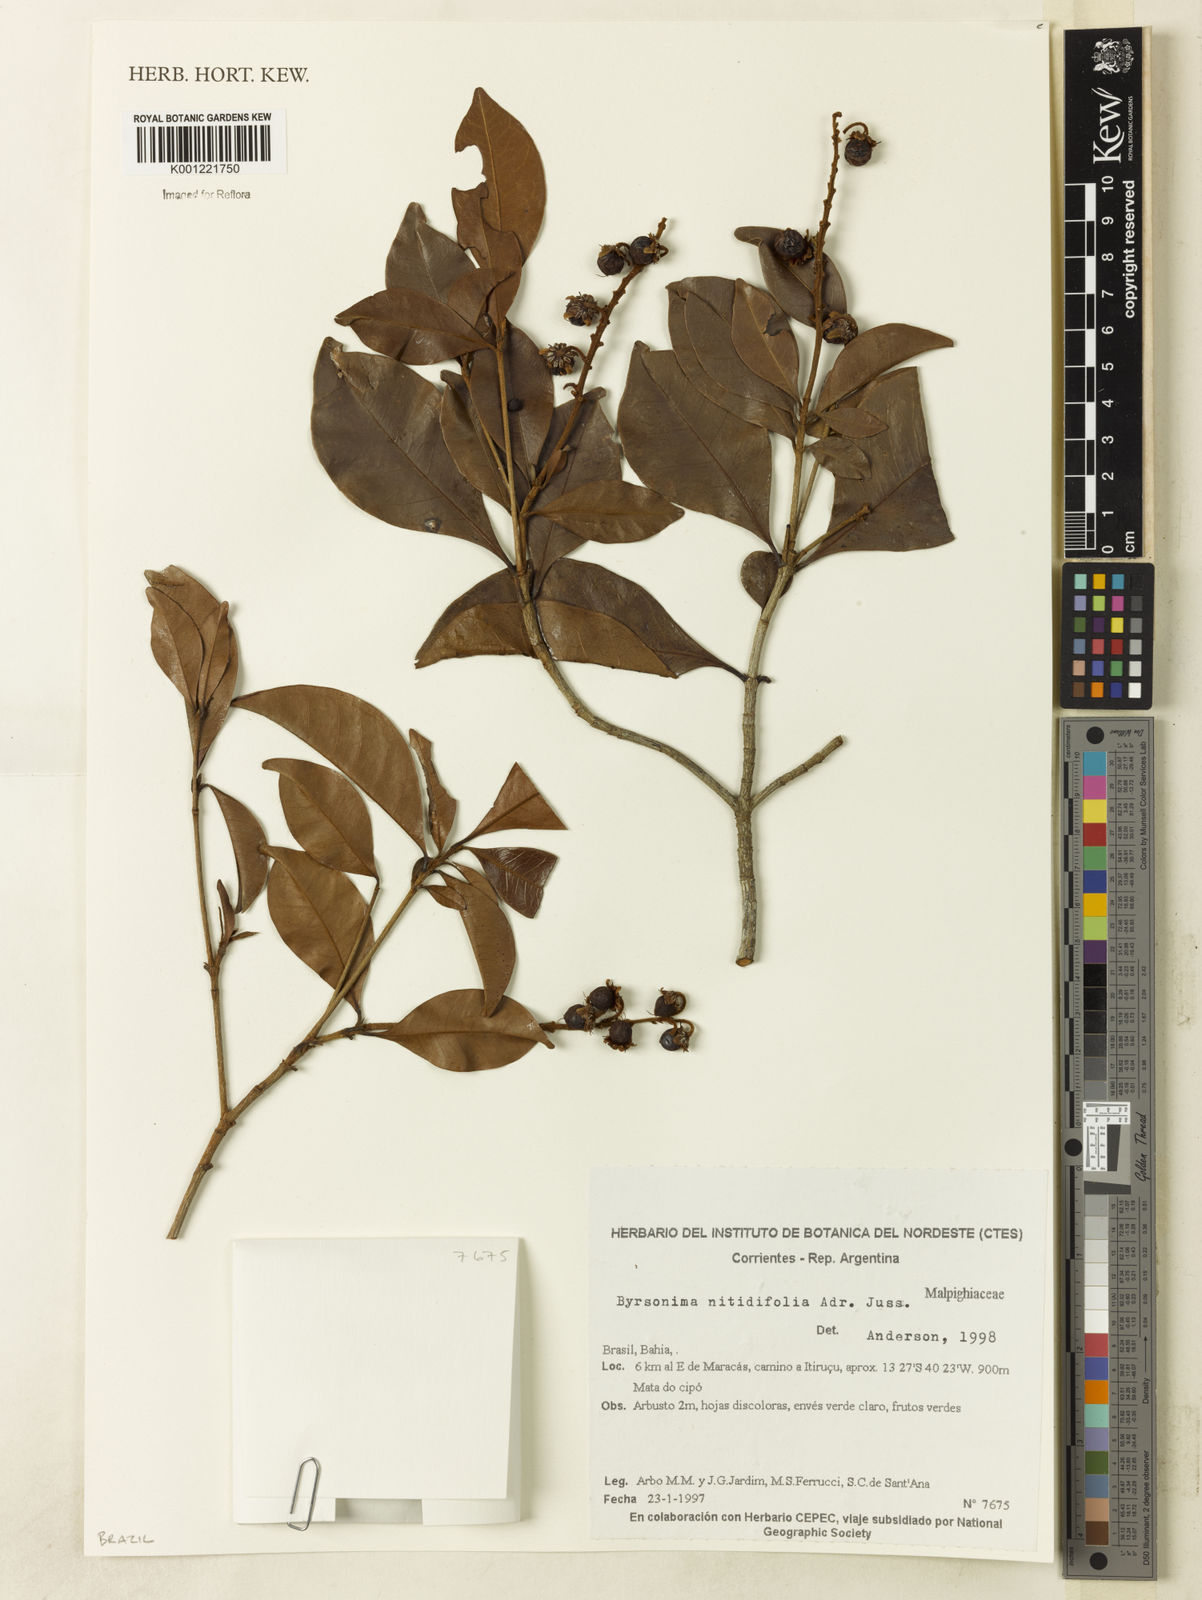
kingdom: Plantae
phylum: Tracheophyta
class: Magnoliopsida
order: Malpighiales
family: Malpighiaceae
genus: Byrsonima
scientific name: Byrsonima nitidifolia
